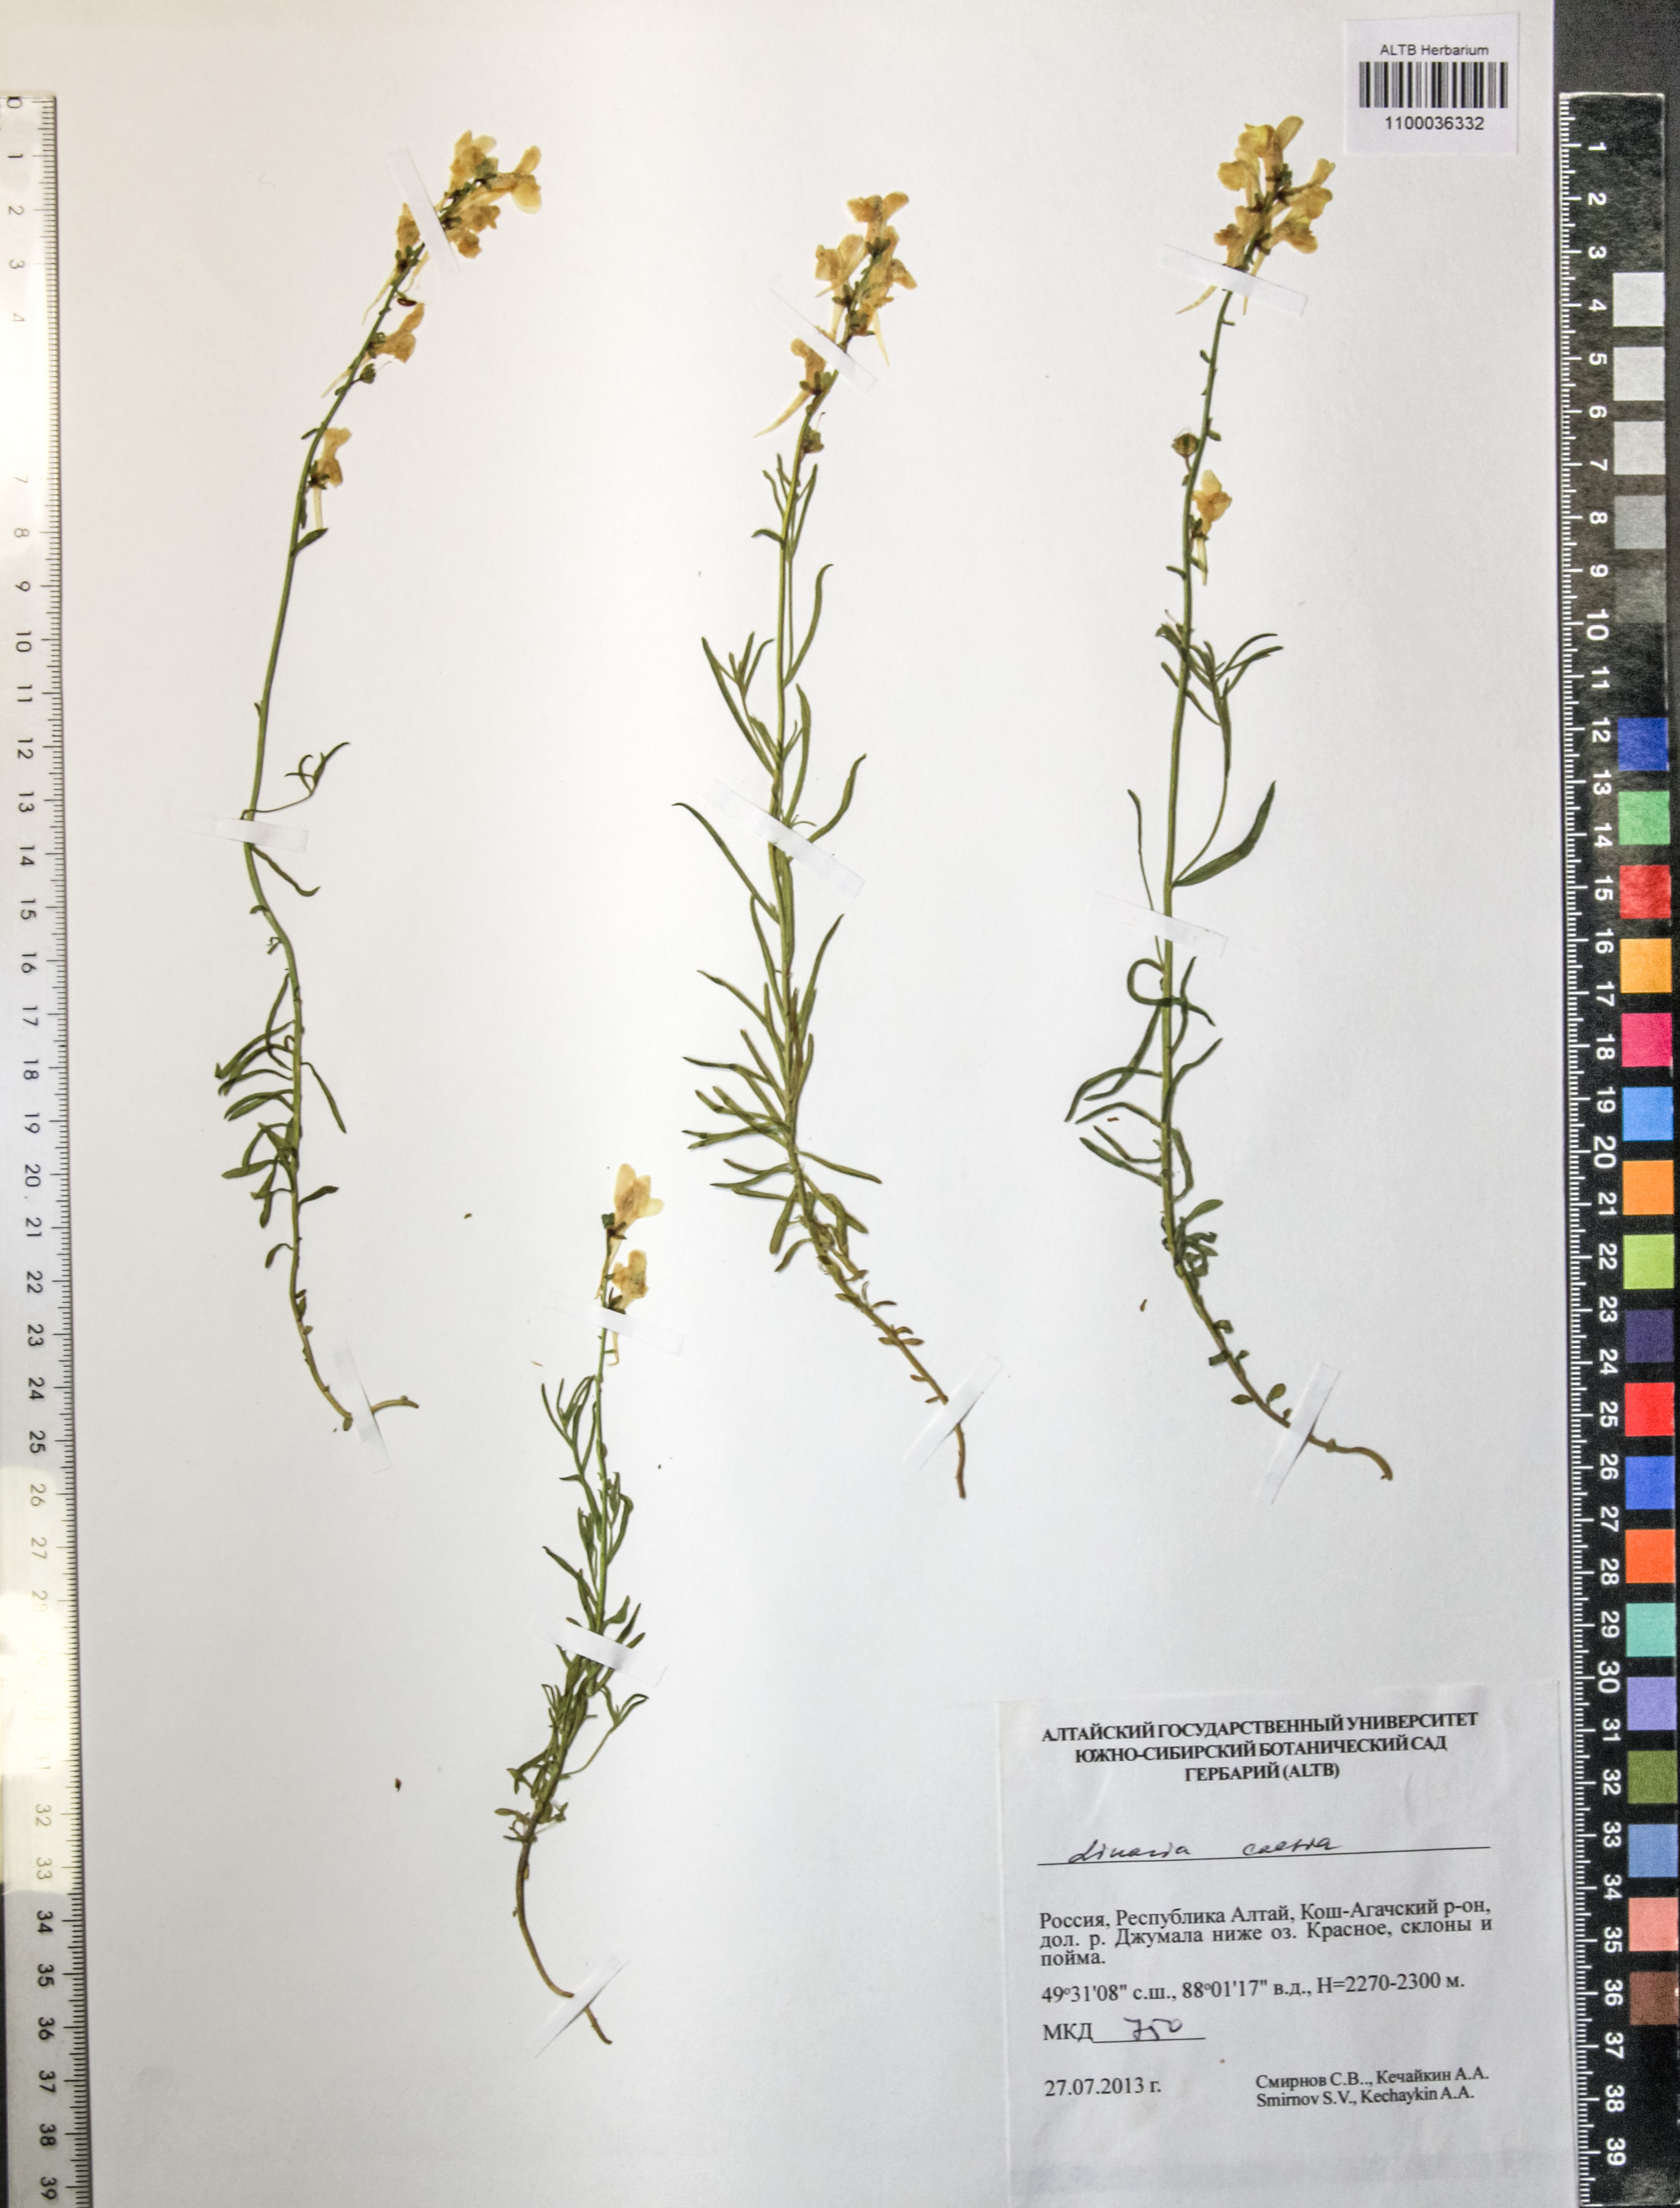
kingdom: Plantae
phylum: Tracheophyta
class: Magnoliopsida
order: Lamiales
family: Plantaginaceae
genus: Linaria
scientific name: Linaria caesia
